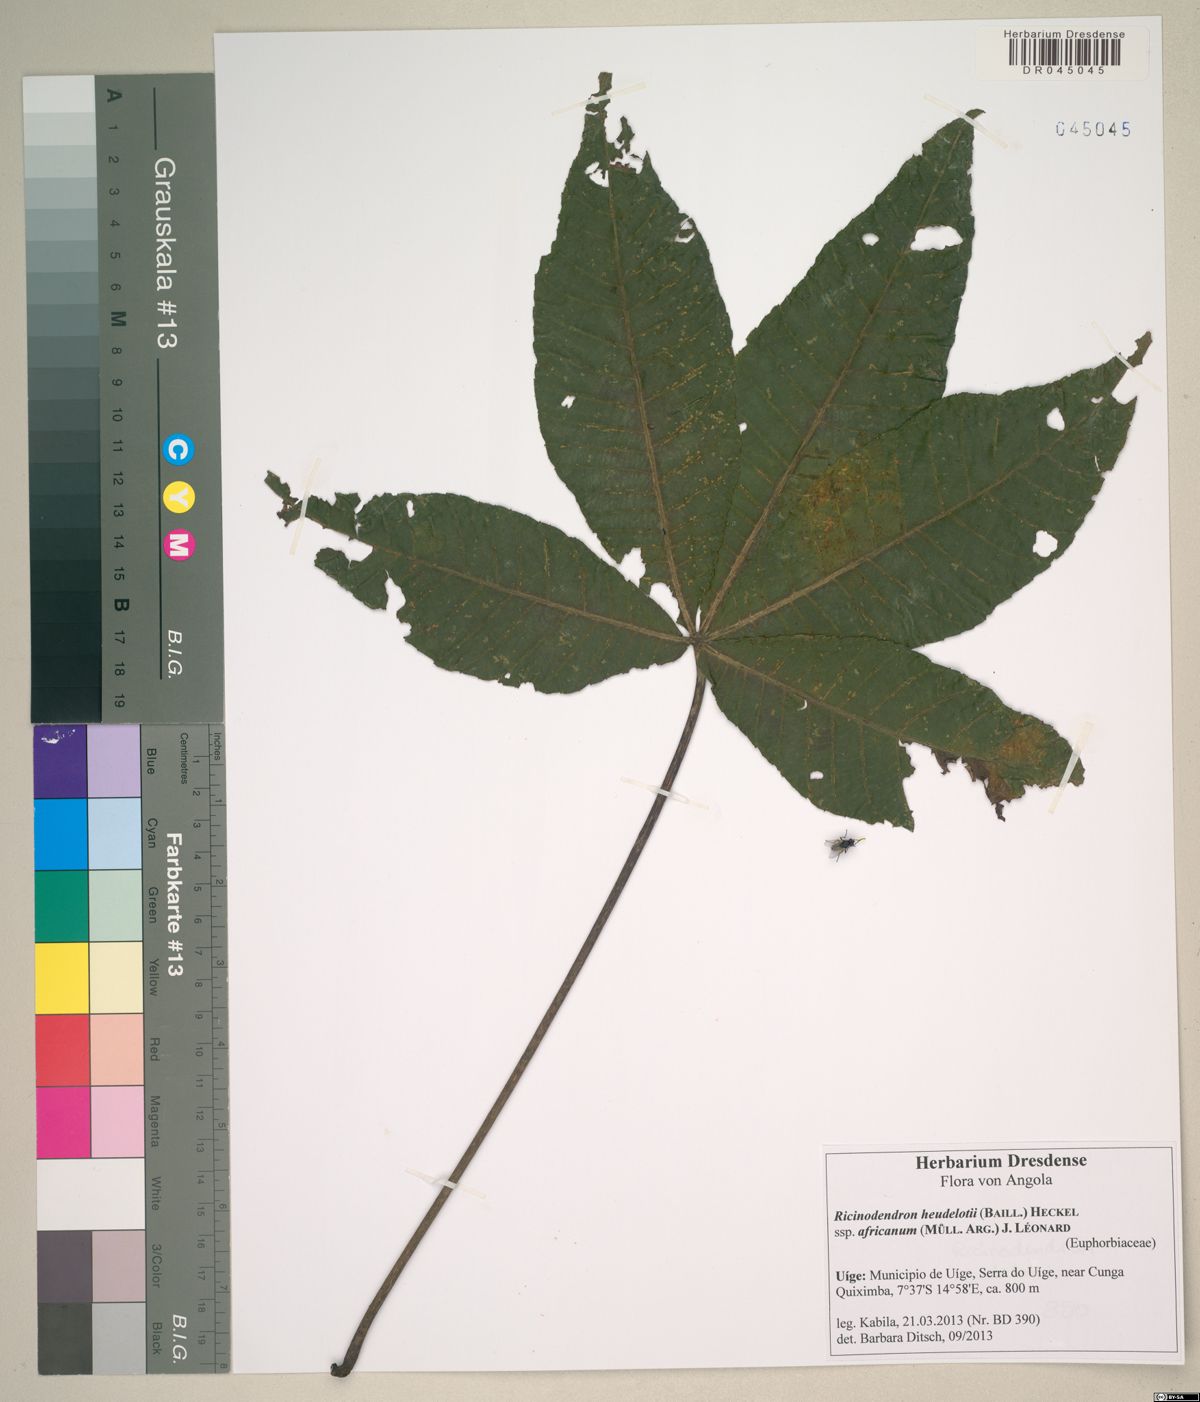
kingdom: Plantae
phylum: Tracheophyta
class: Magnoliopsida
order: Malpighiales
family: Euphorbiaceae
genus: Ricinodendron
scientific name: Ricinodendron heudelotii
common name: African nut-tree
